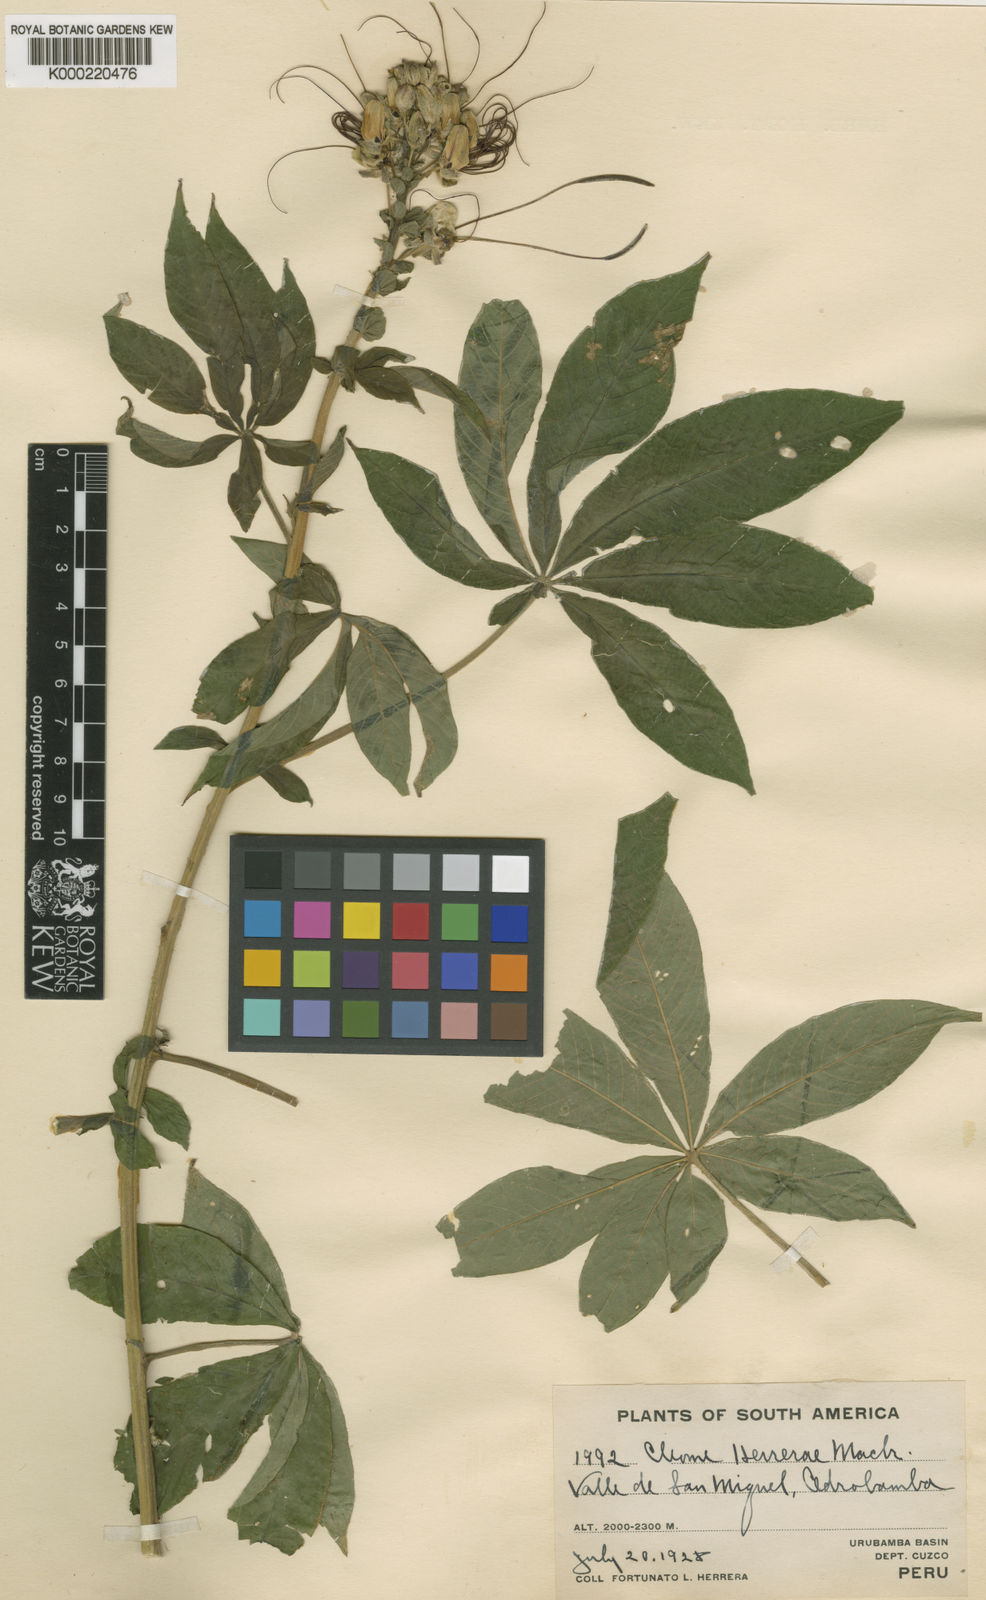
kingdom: Plantae
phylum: Tracheophyta
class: Magnoliopsida
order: Brassicales
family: Cleomaceae
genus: Andinocleome
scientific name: Andinocleome lechleri
